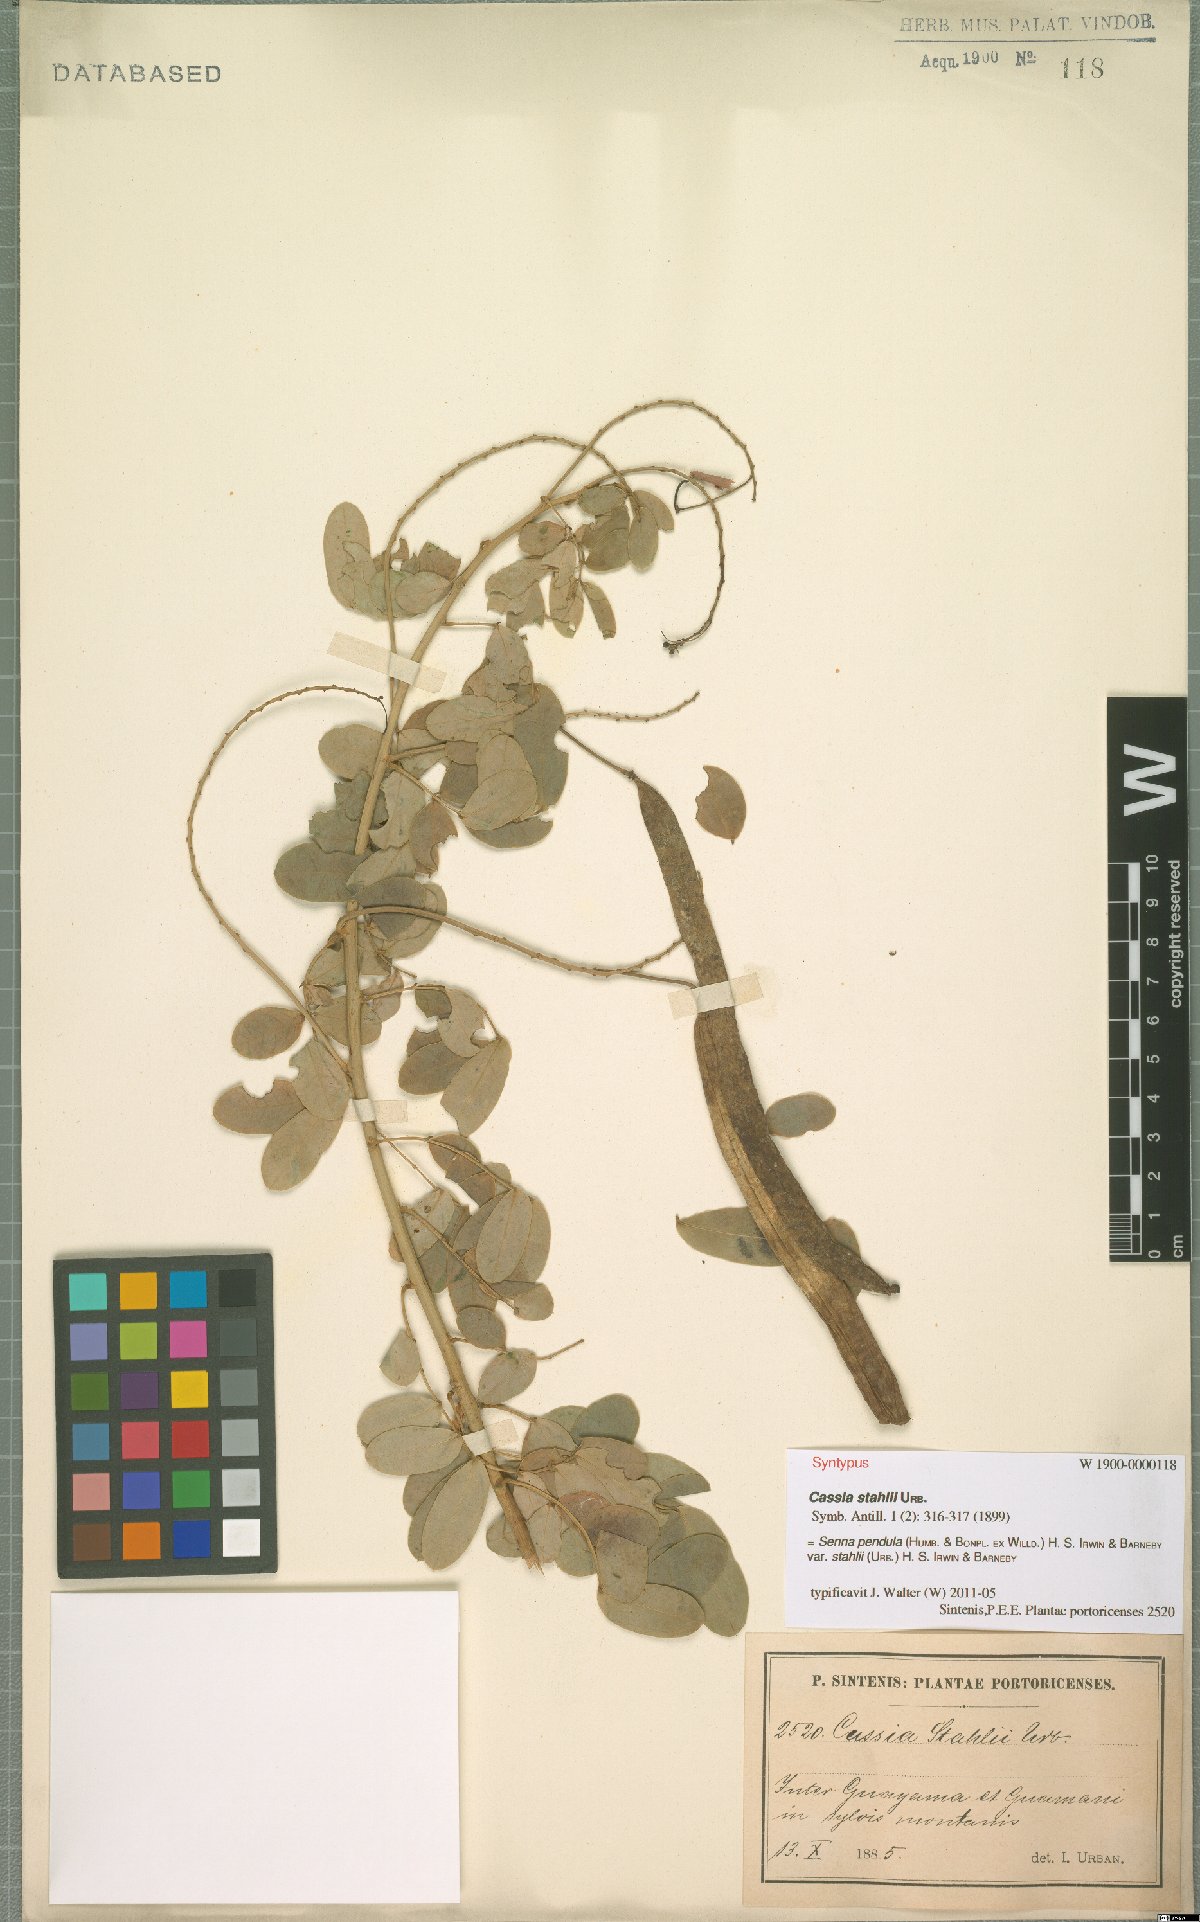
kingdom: Plantae
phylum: Tracheophyta
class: Magnoliopsida
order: Fabales
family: Fabaceae
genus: Senna
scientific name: Senna pendula
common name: Easter cassia
